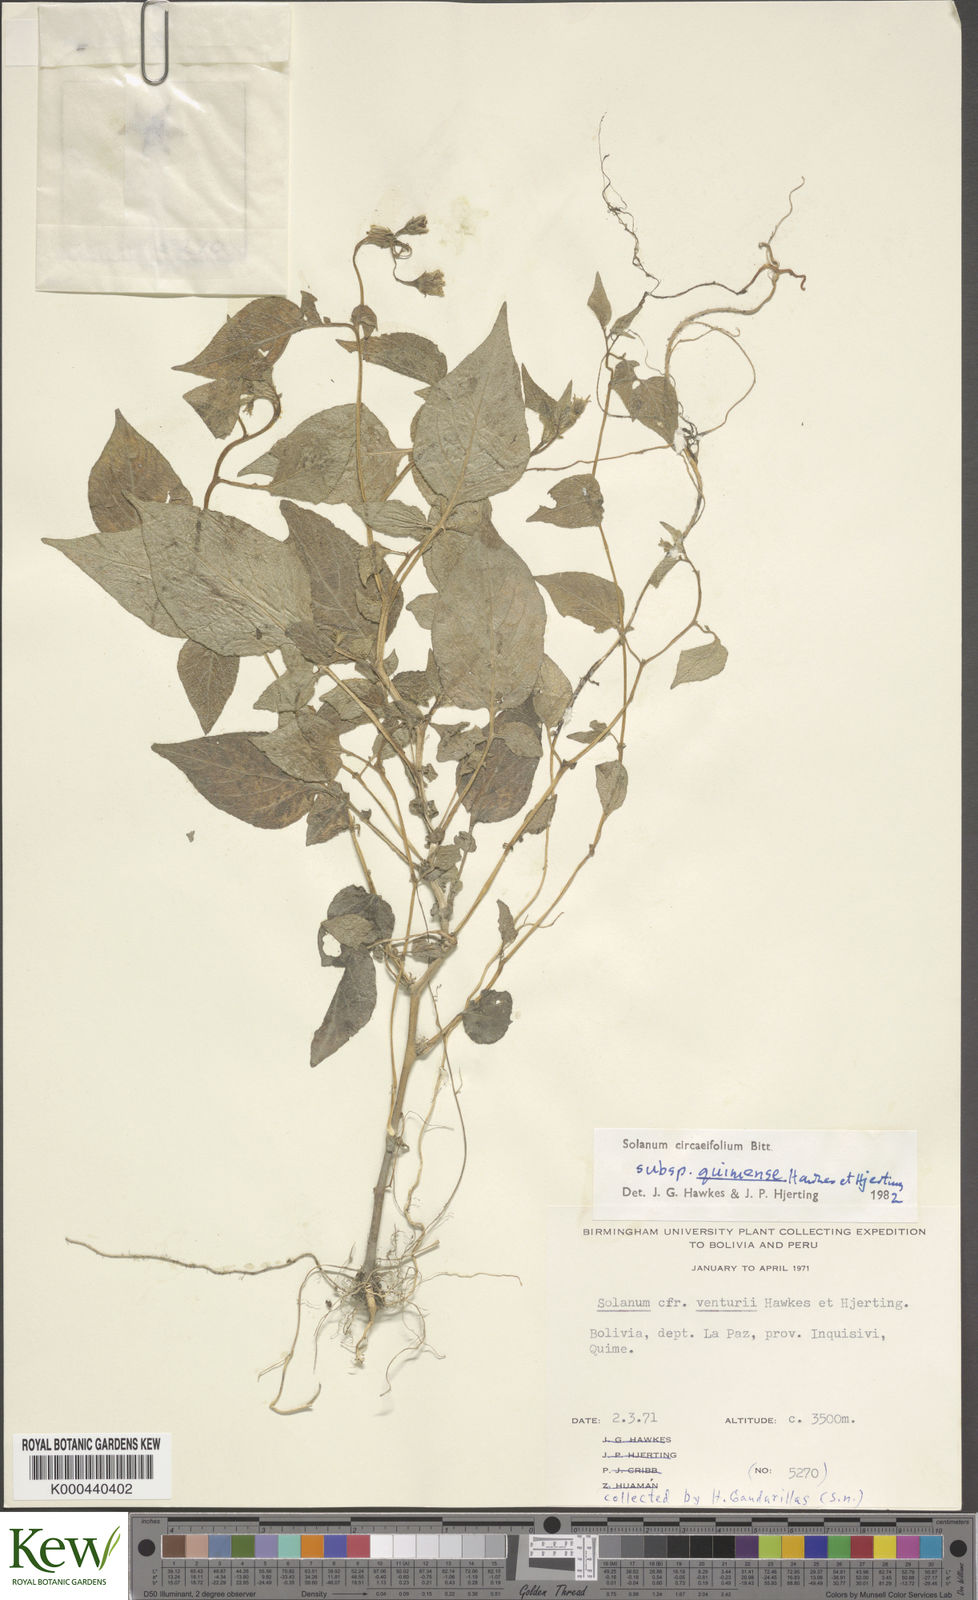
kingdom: Plantae
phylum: Tracheophyta
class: Magnoliopsida
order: Solanales
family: Solanaceae
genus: Solanum
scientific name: Solanum stipuloideum
